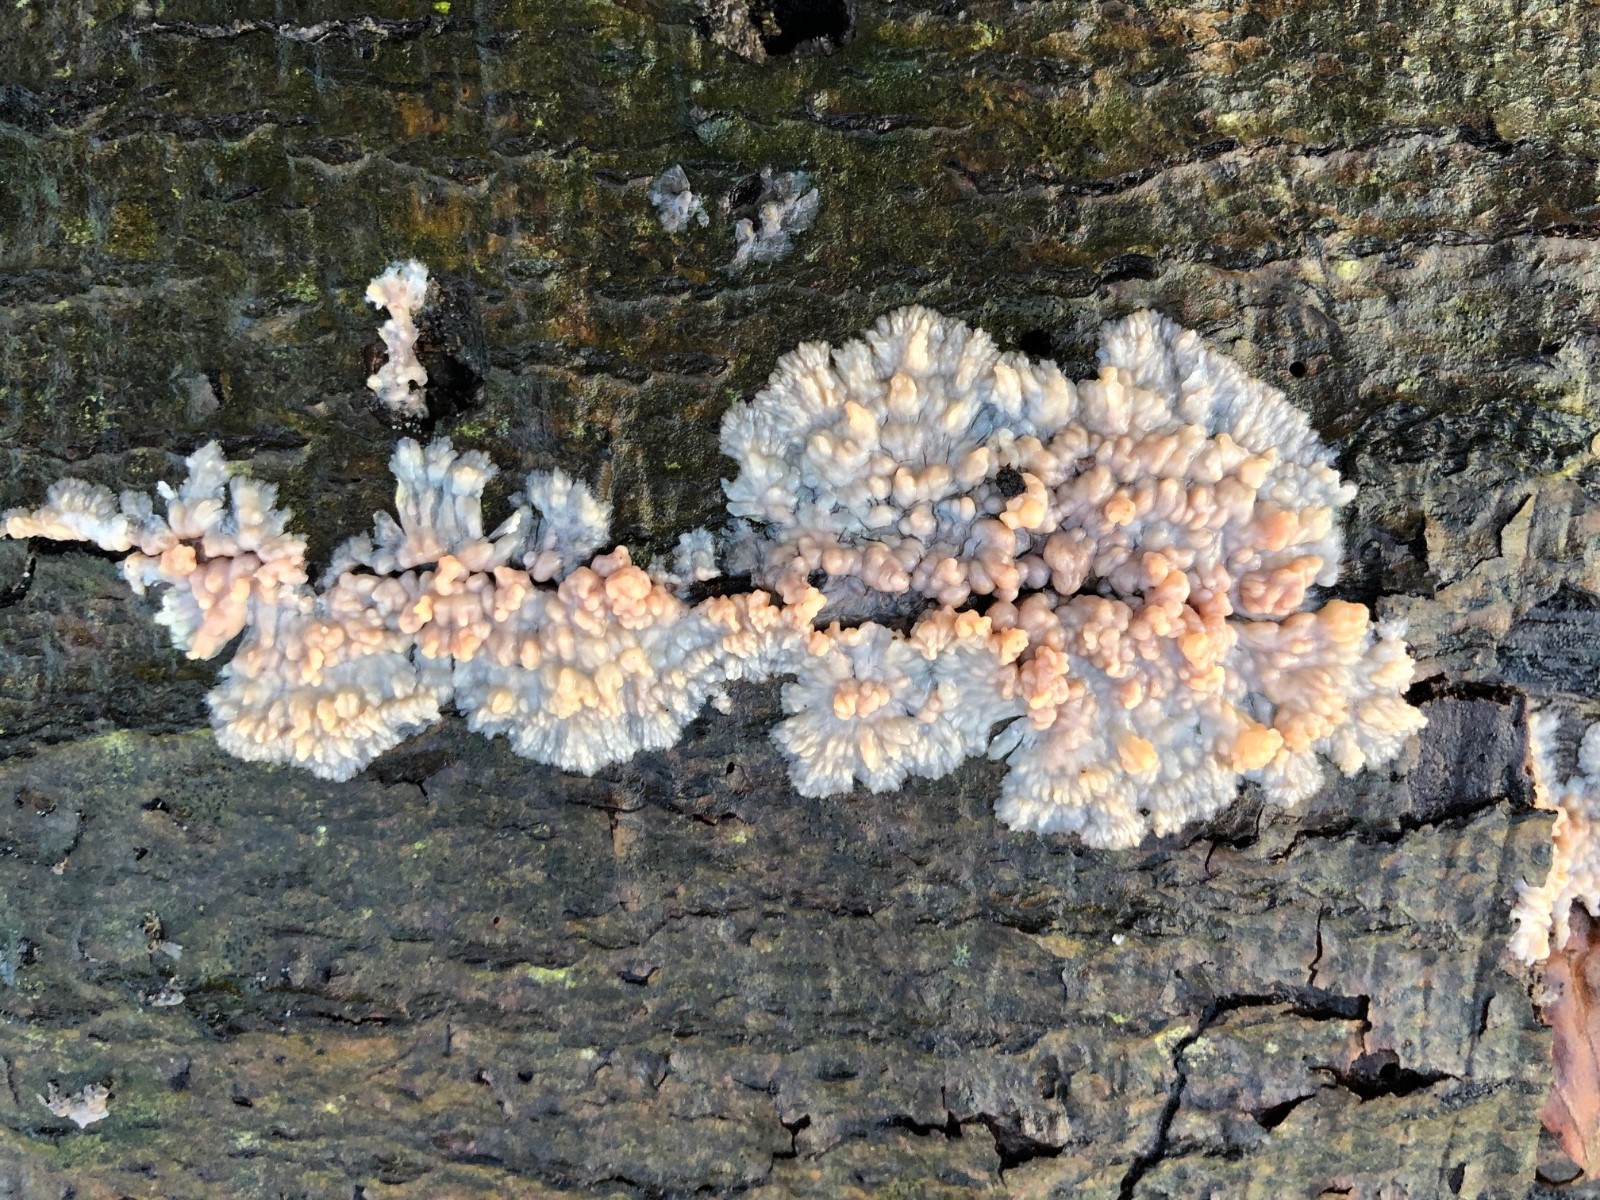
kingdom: Fungi
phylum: Basidiomycota
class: Agaricomycetes
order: Polyporales
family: Meruliaceae
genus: Phlebia
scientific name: Phlebia radiata
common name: stråle-åresvamp
